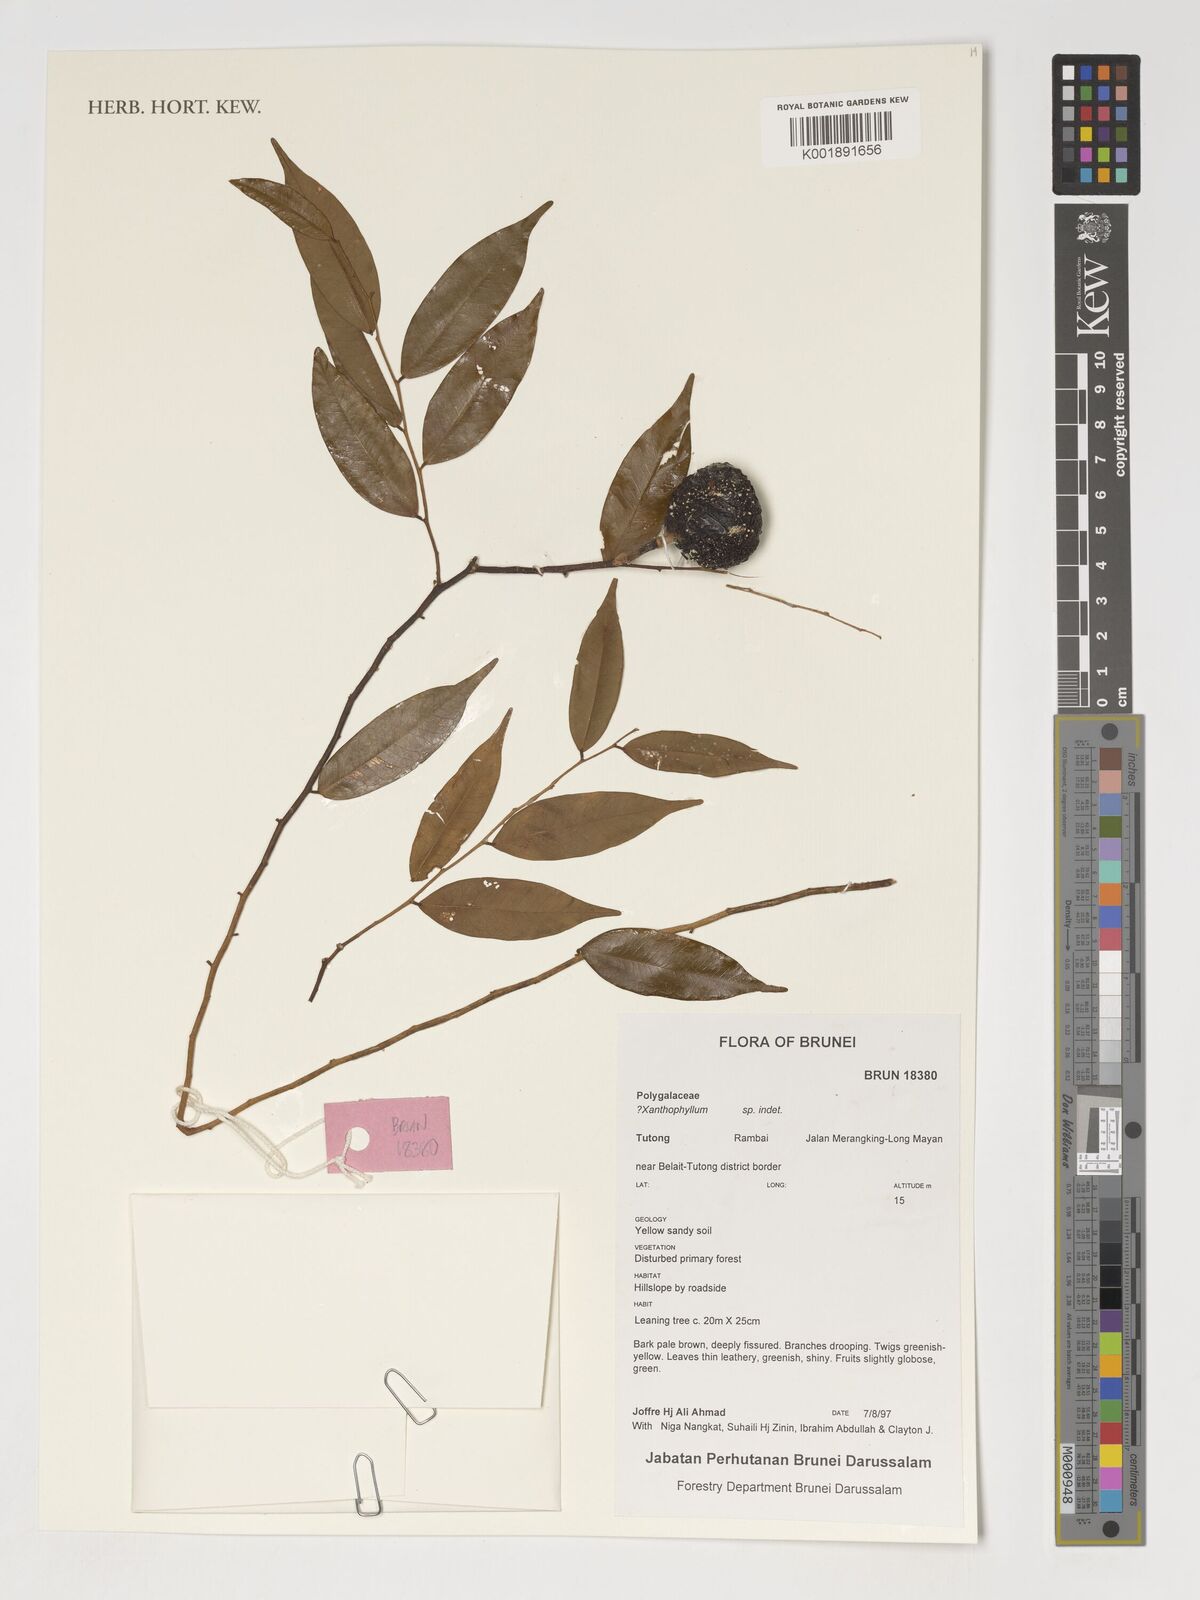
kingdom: Plantae
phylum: Tracheophyta
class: Magnoliopsida
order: Fabales
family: Polygalaceae
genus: Xanthophyllum
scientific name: Xanthophyllum
